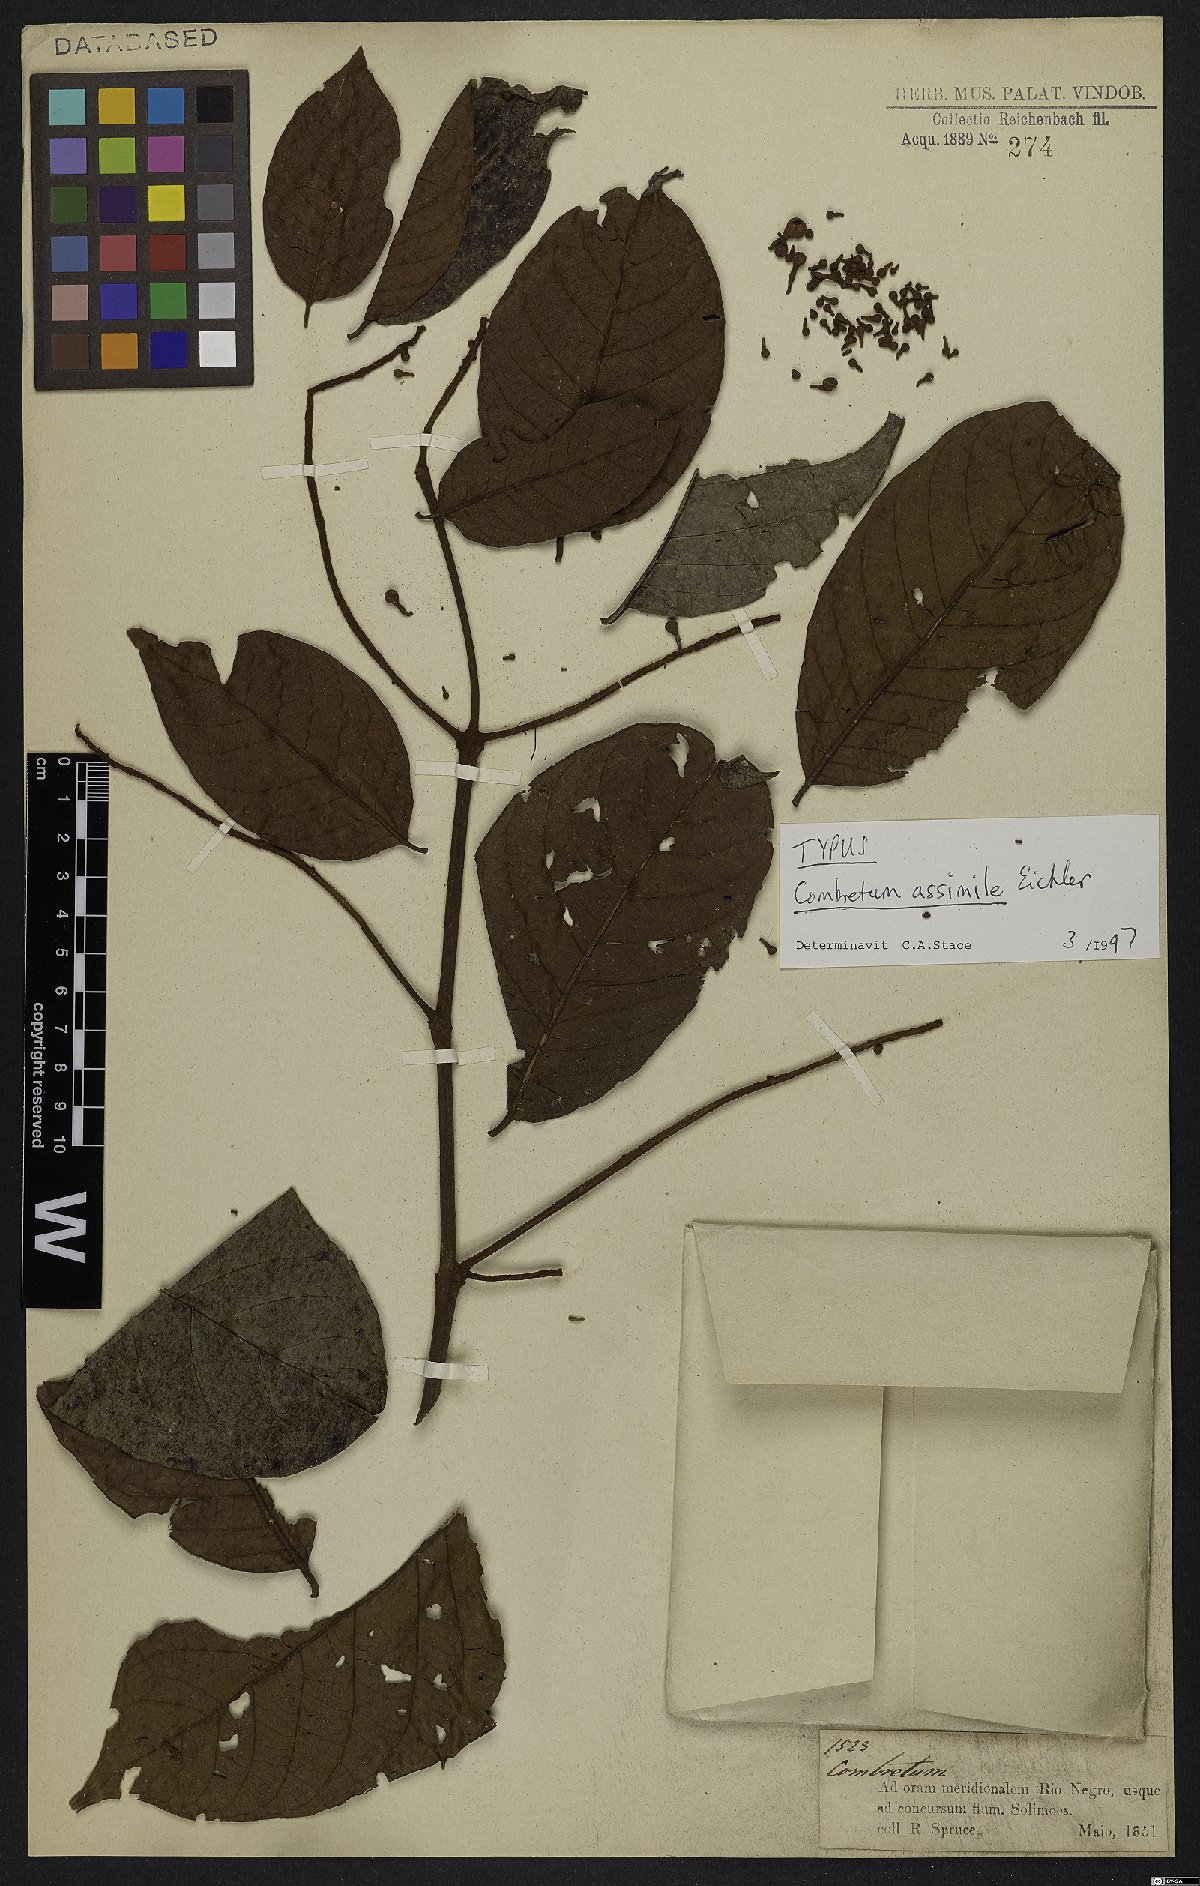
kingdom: Plantae
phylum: Tracheophyta
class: Magnoliopsida
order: Myrtales
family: Combretaceae
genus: Combretum
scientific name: Combretum assimile
